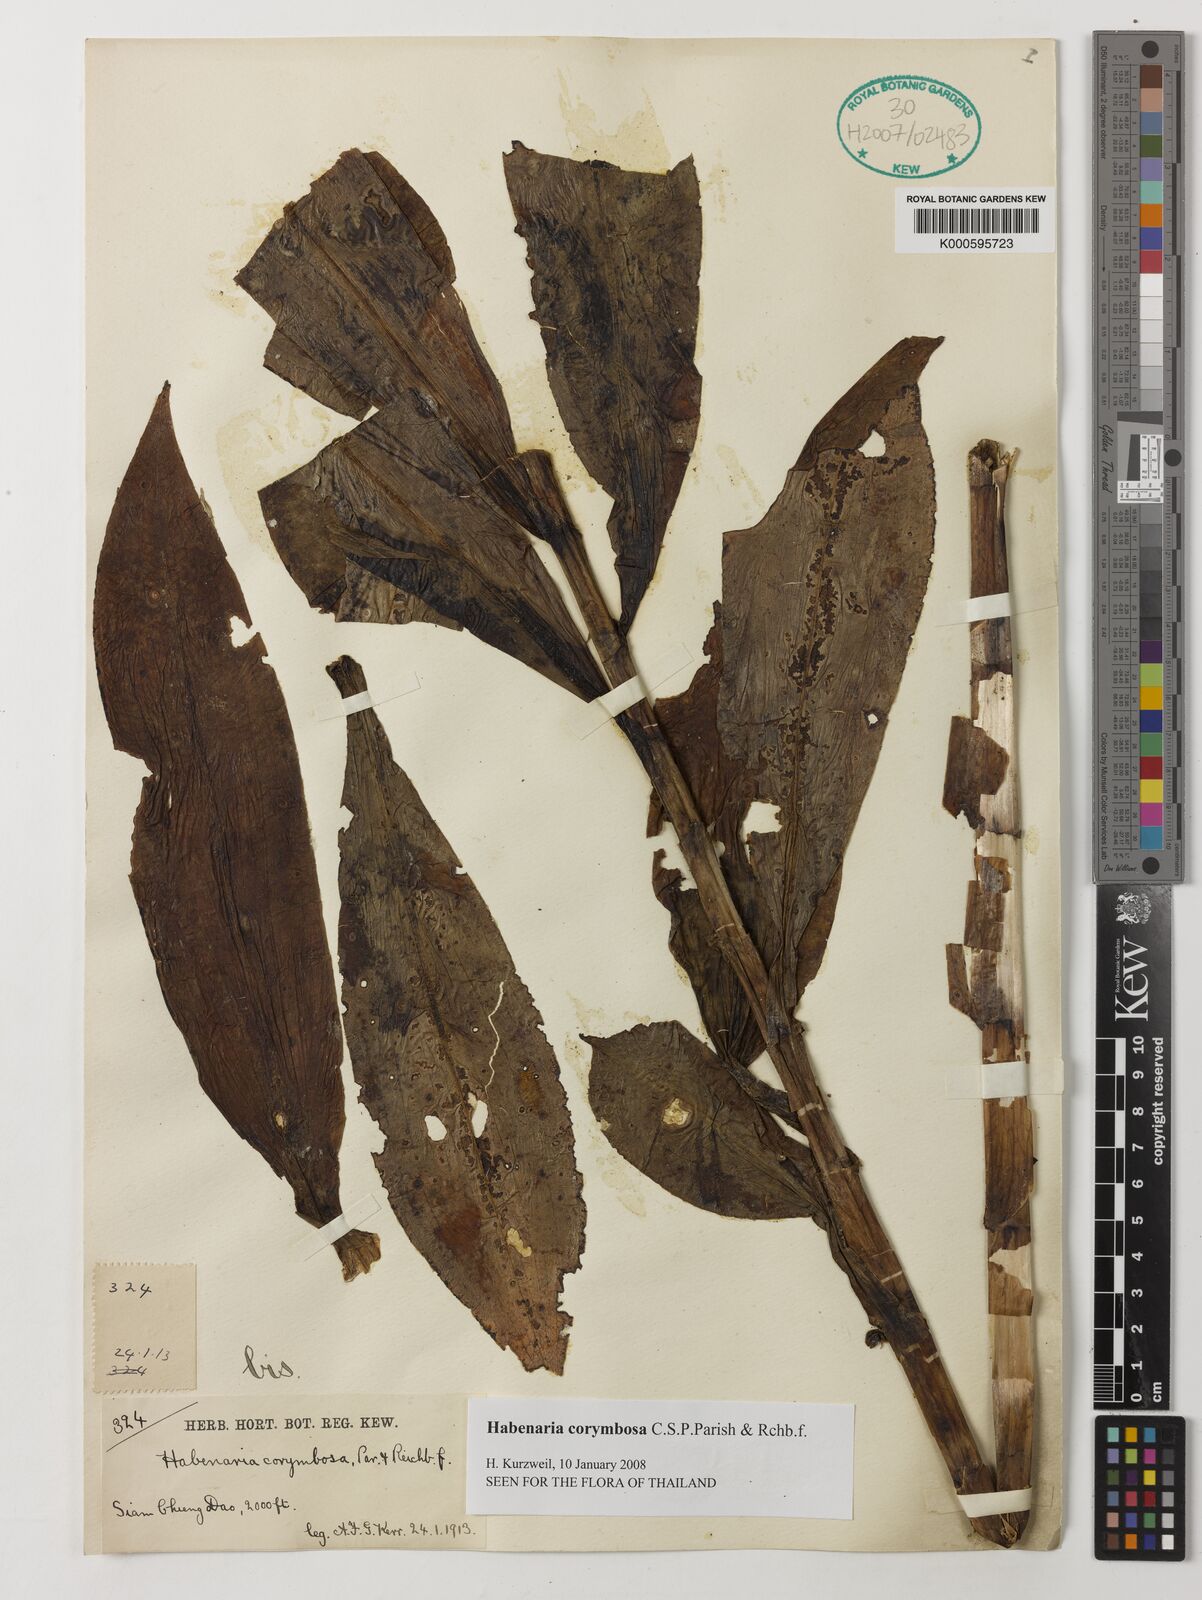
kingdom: Plantae
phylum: Tracheophyta
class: Liliopsida
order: Asparagales
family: Orchidaceae
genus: Habenaria
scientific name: Habenaria corymbosa
